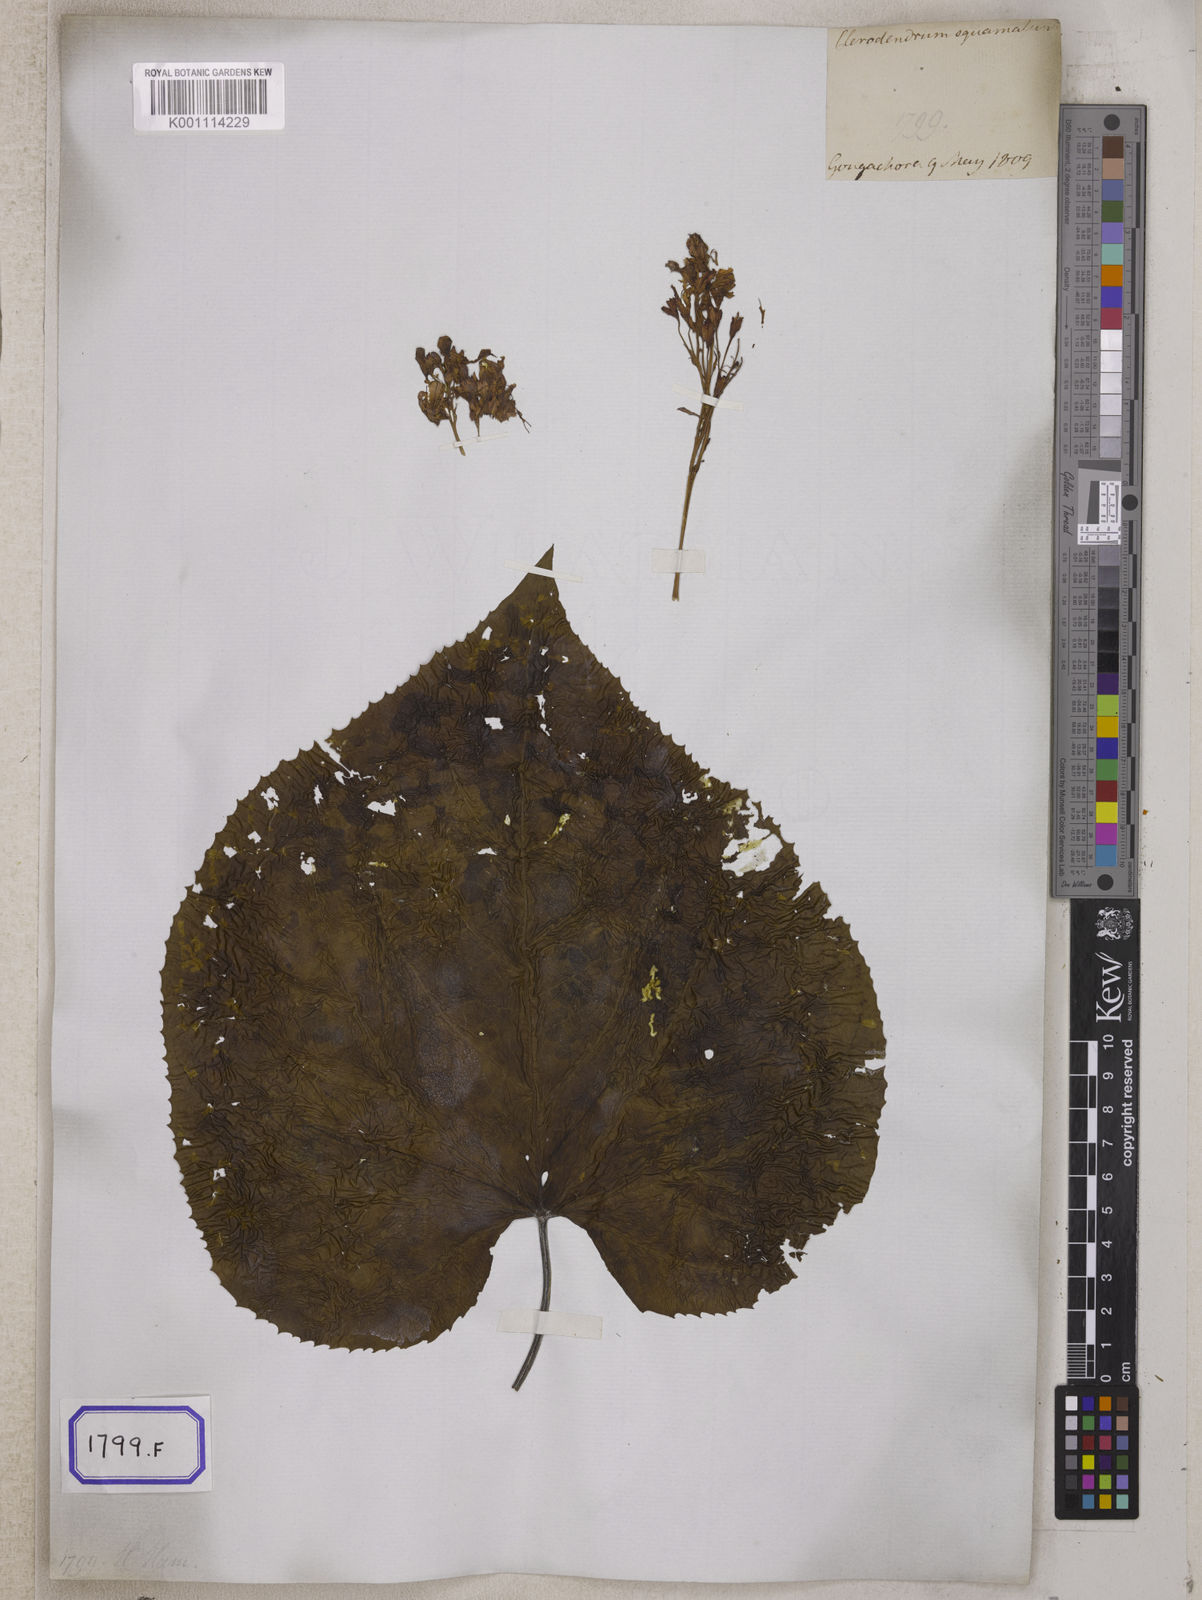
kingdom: Plantae
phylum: Tracheophyta
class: Magnoliopsida
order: Lamiales
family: Lamiaceae
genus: Clerodendrum
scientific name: Clerodendrum japonicum
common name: Japanese glorybower
